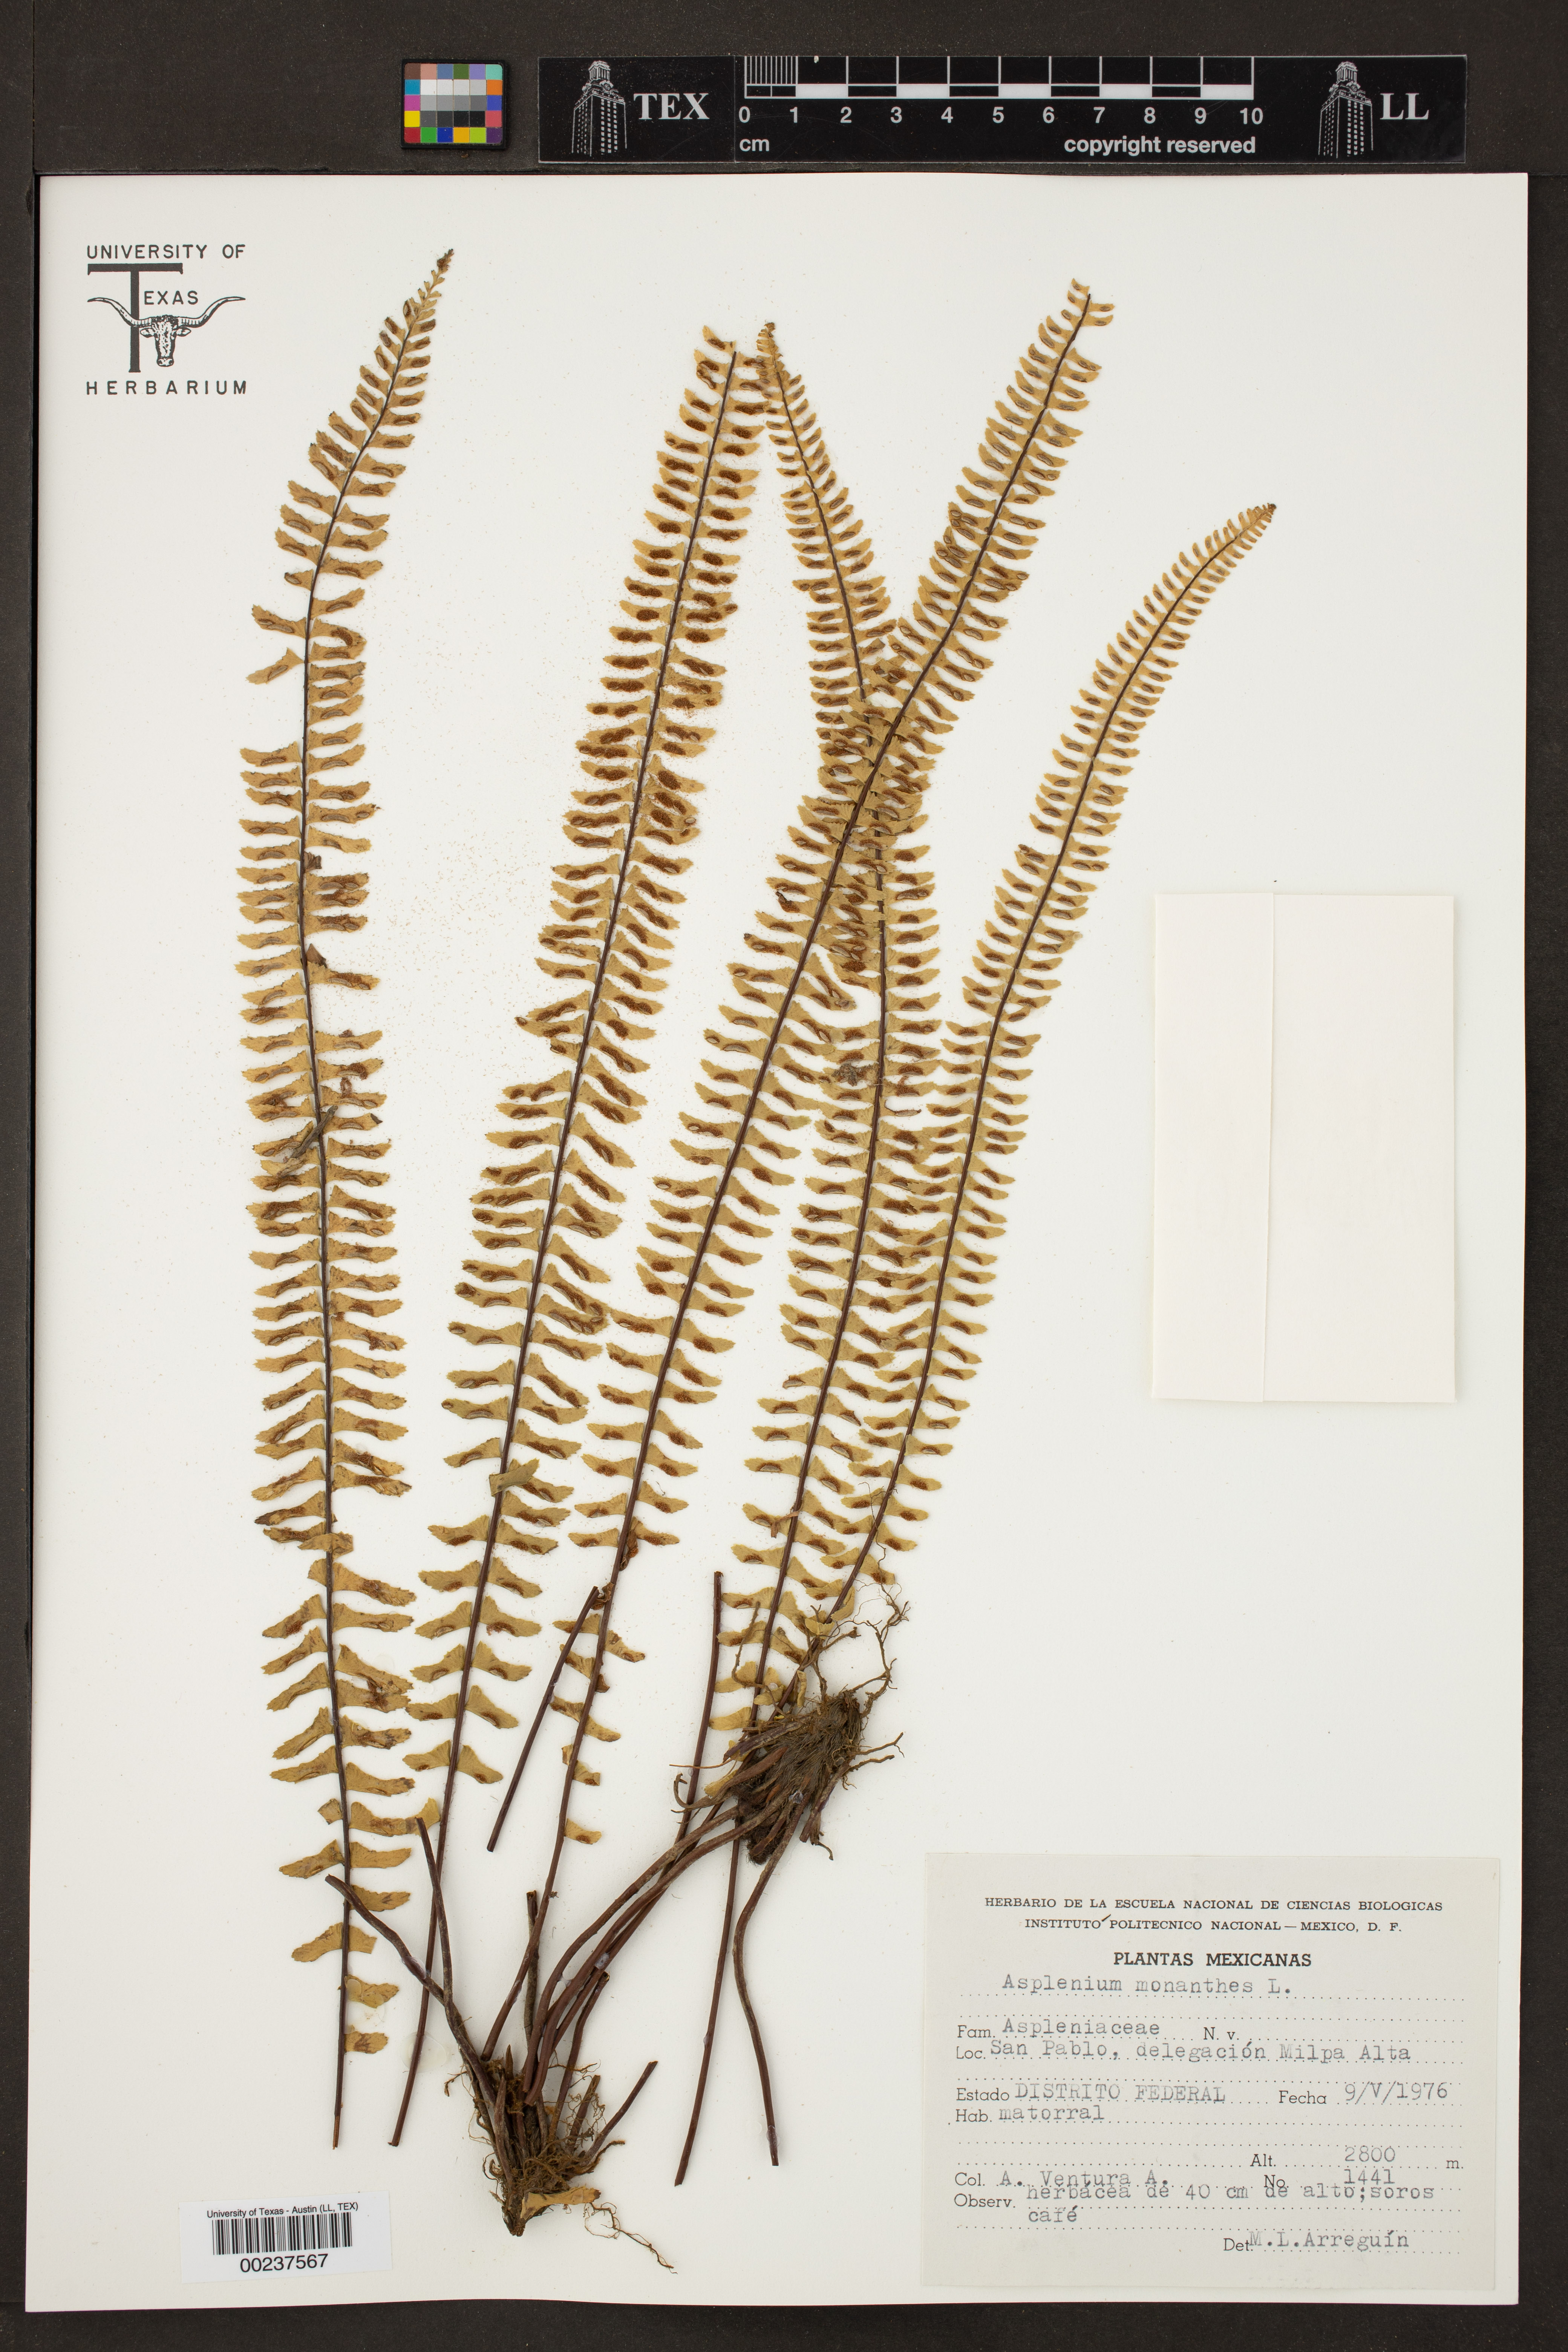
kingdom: Plantae
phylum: Tracheophyta
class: Polypodiopsida
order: Polypodiales
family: Aspleniaceae
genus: Asplenium
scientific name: Asplenium monanthes
